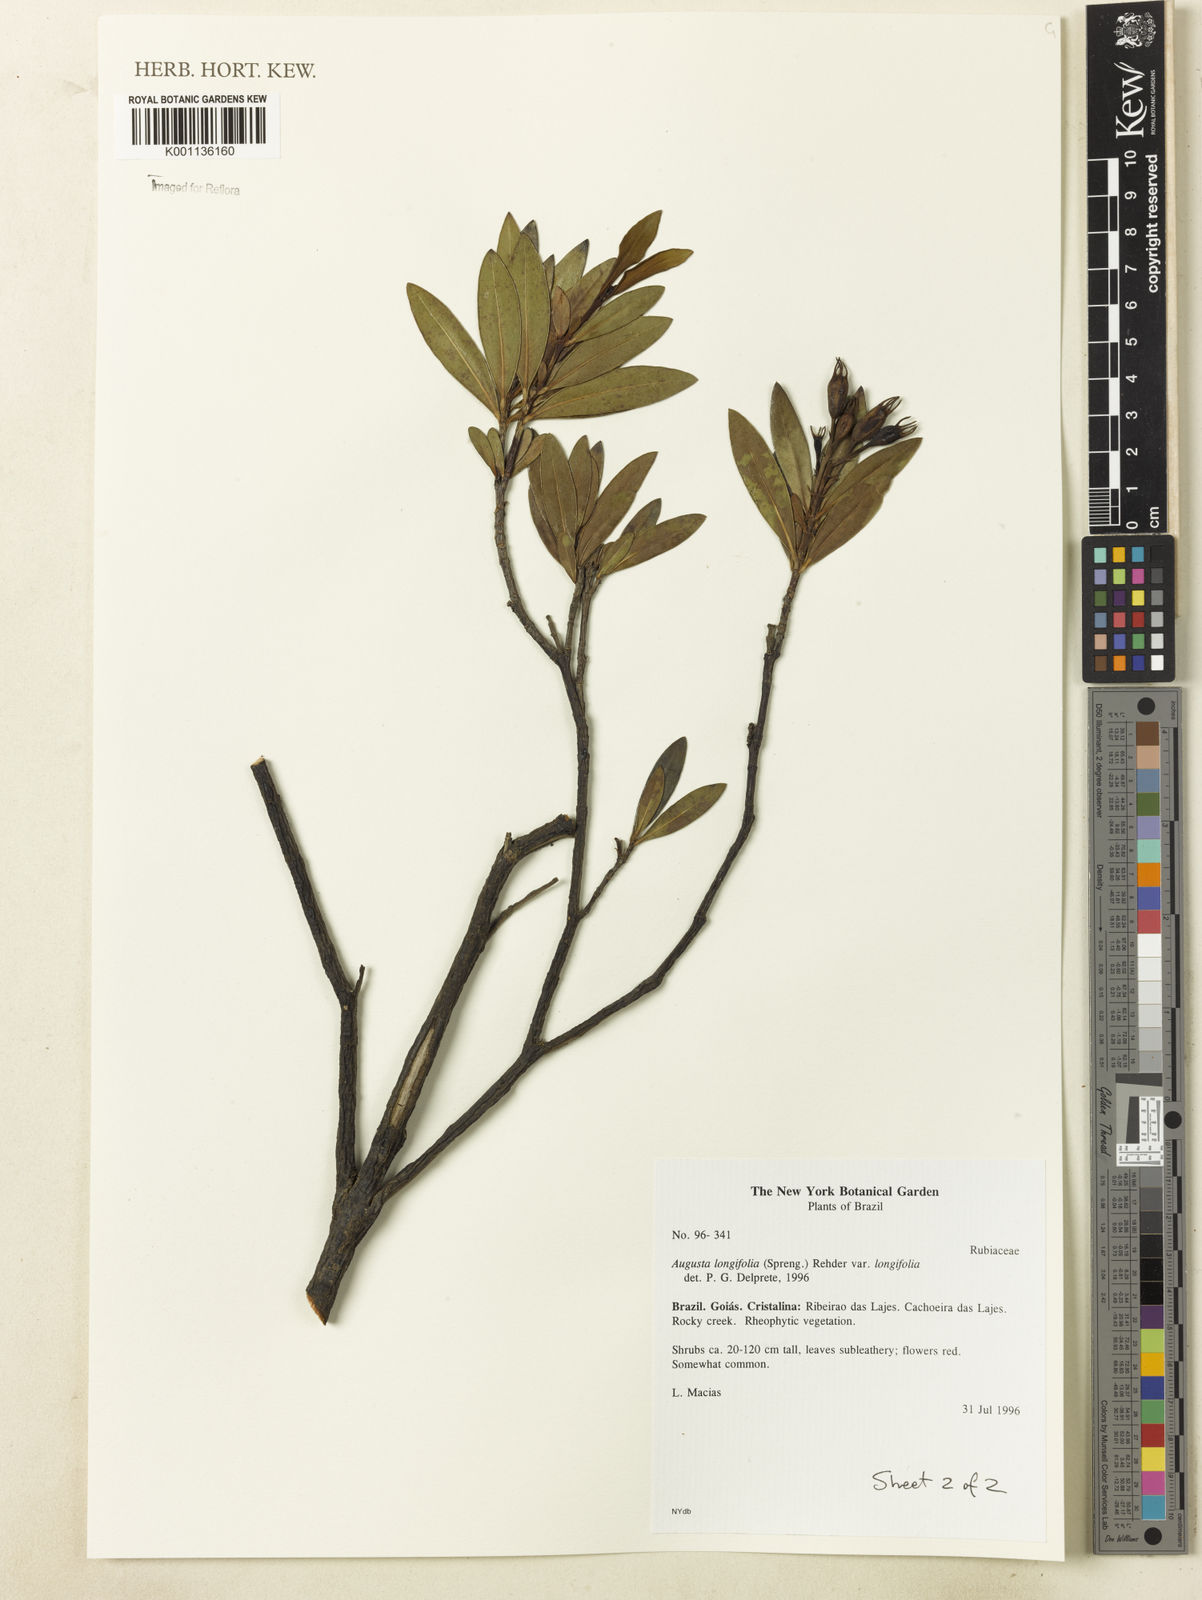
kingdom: Plantae
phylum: Tracheophyta
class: Magnoliopsida
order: Gentianales
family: Rubiaceae
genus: Augusta
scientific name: Augusta longifolia
